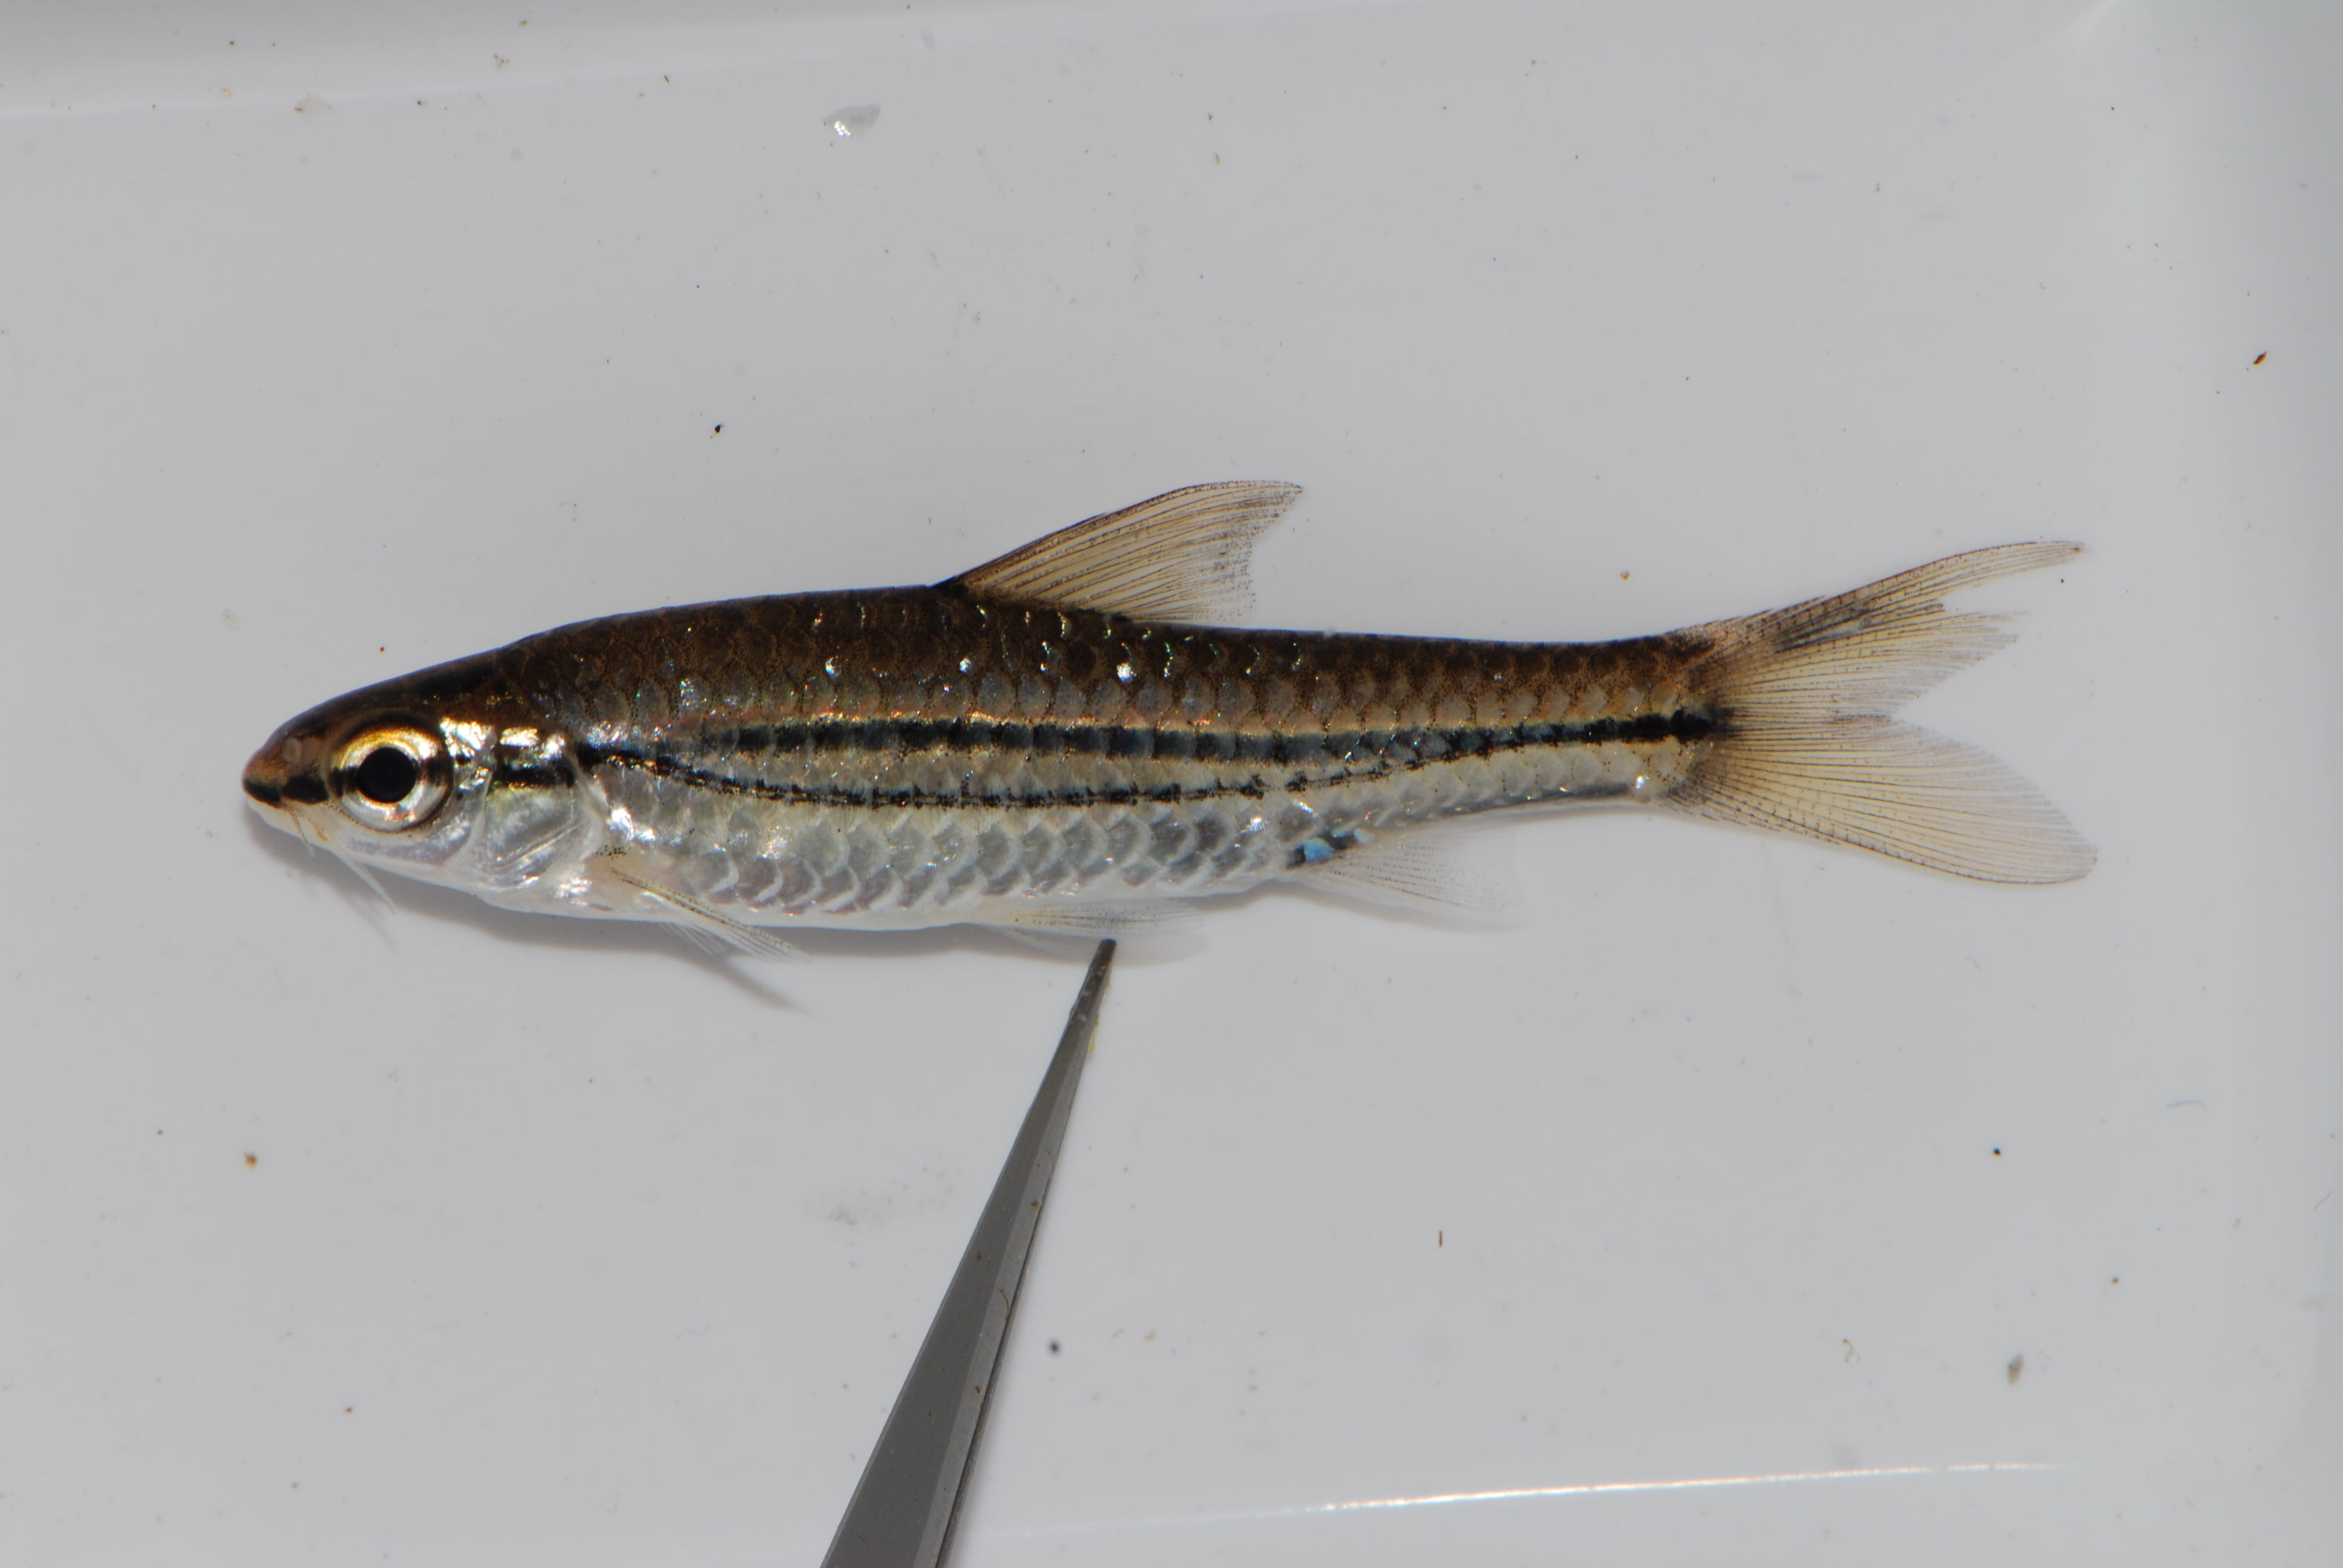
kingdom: Animalia
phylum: Chordata
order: Cypriniformes
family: Cyprinidae
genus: Enteromius
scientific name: Enteromius bifrenatus
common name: Hyphen barb
